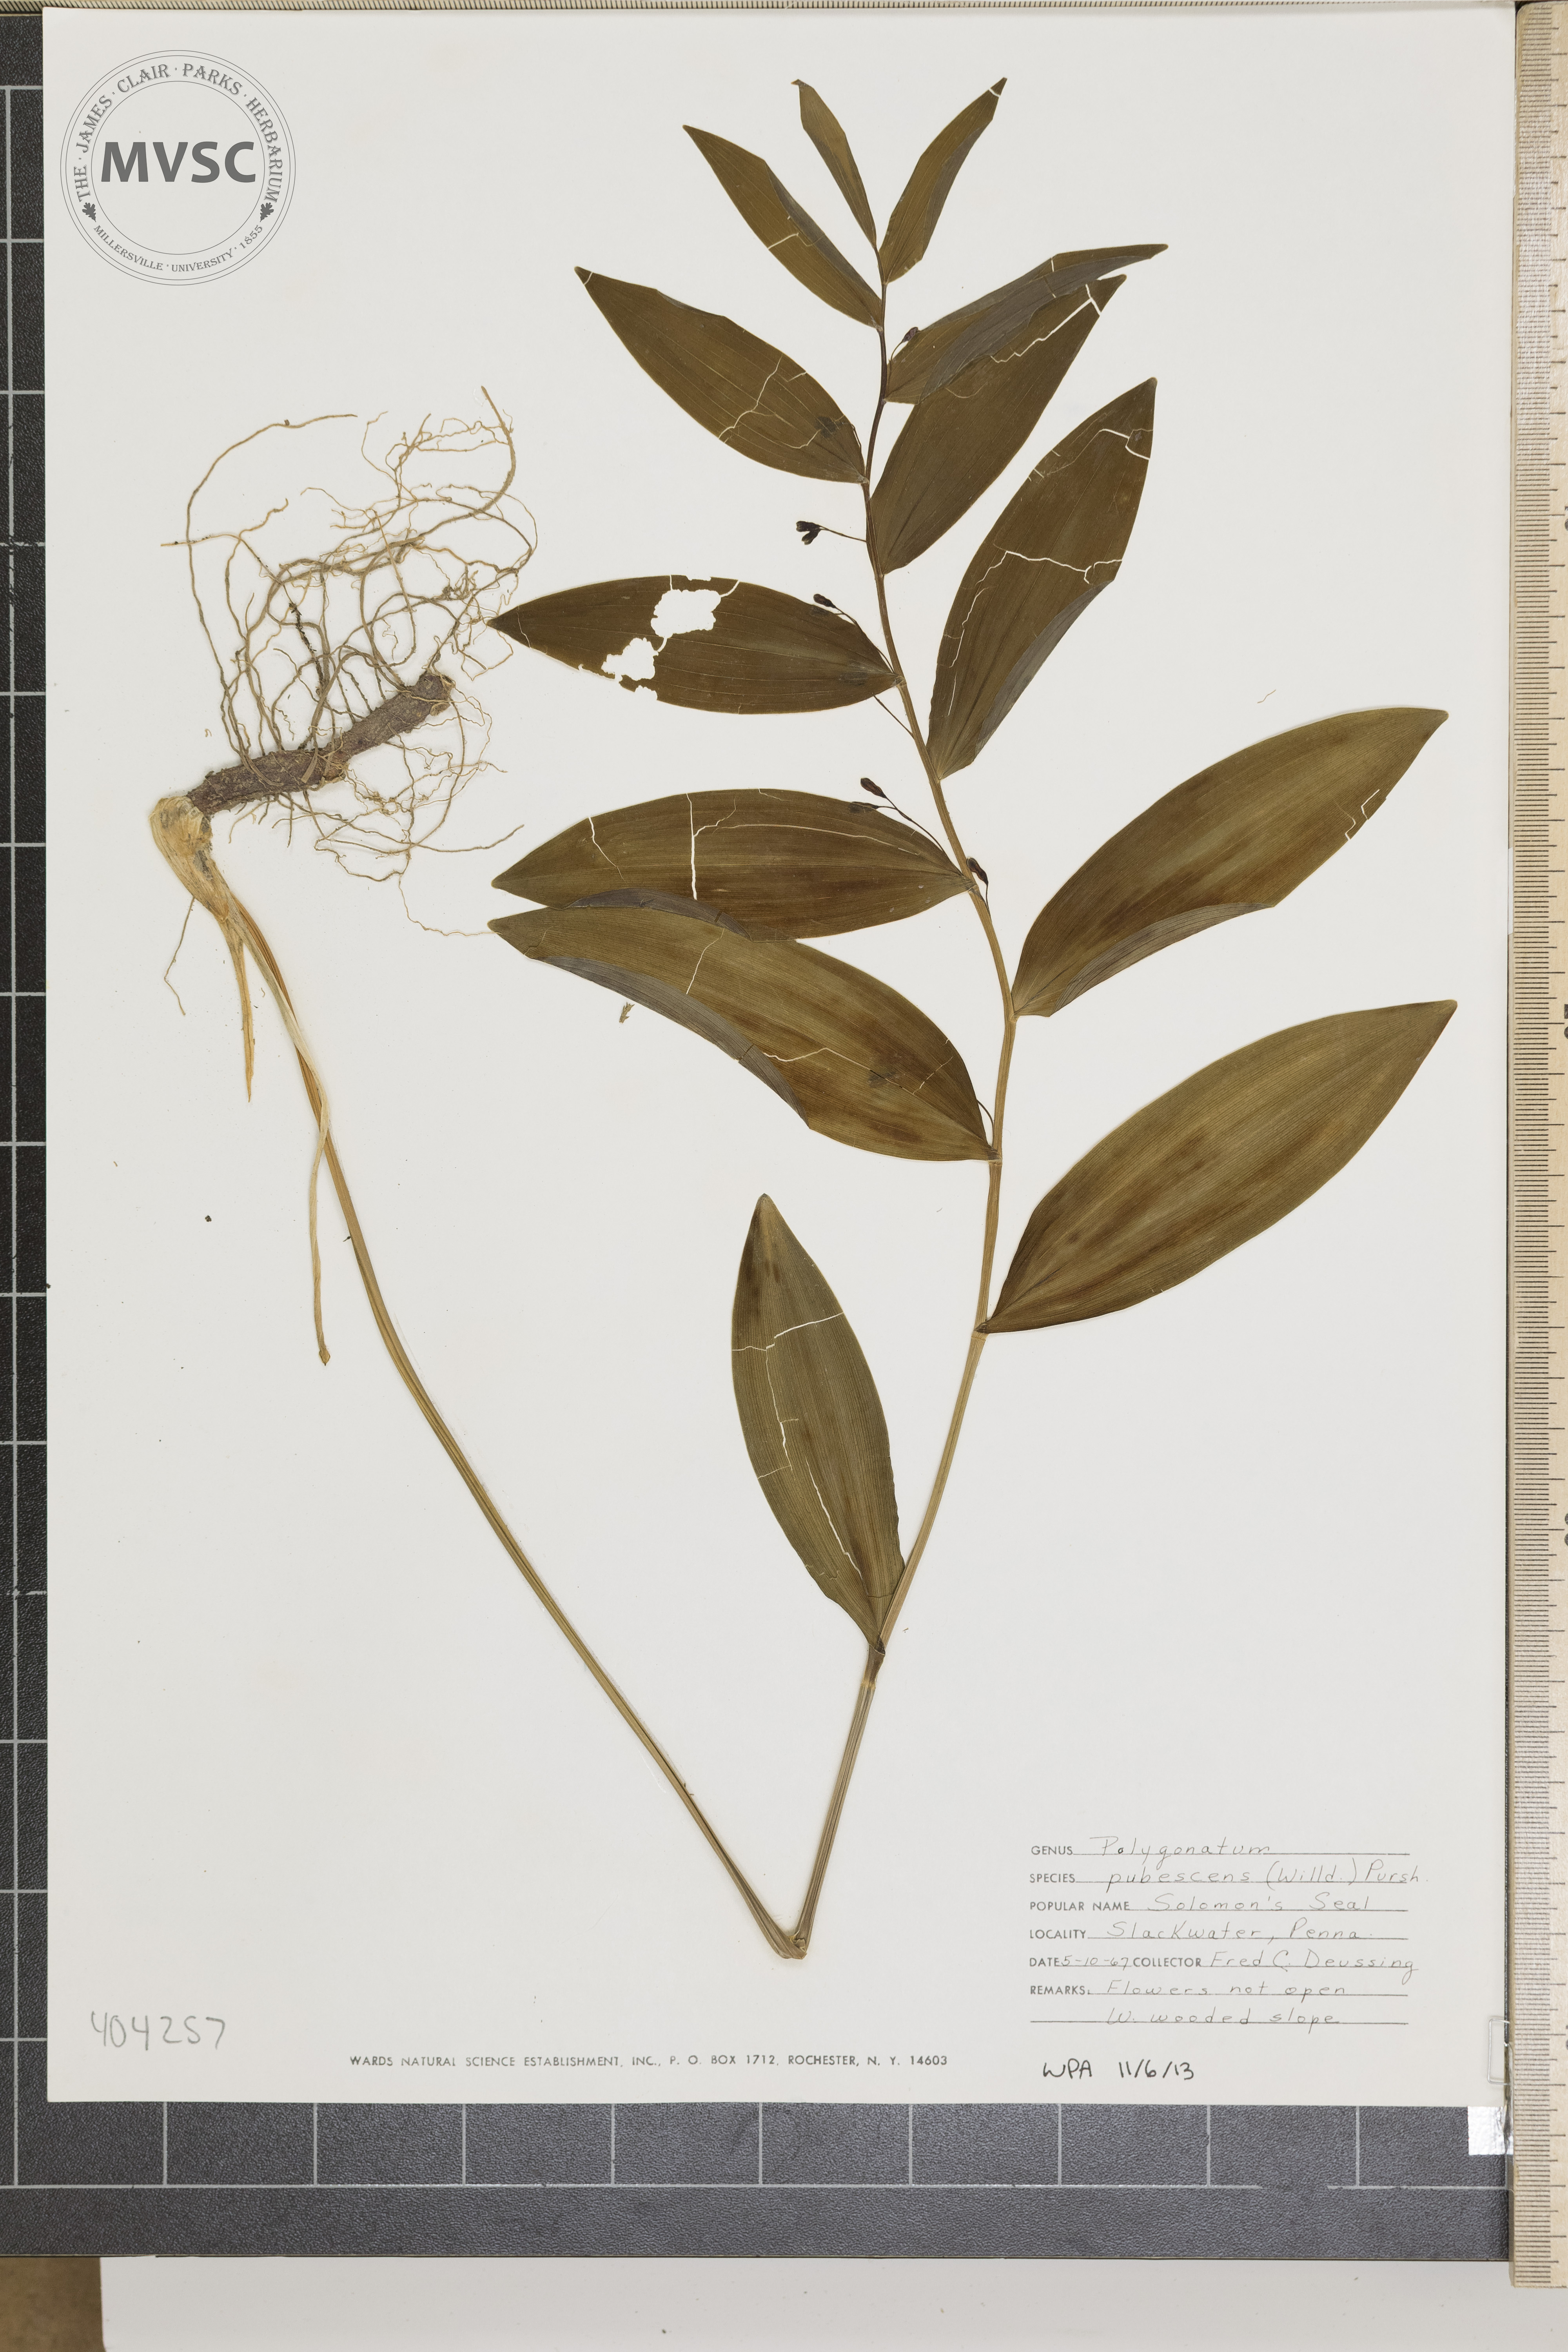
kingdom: Plantae
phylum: Tracheophyta
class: Liliopsida
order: Asparagales
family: Asparagaceae
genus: Polygonatum
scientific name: Polygonatum pubescens
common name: Solomon's Seal
